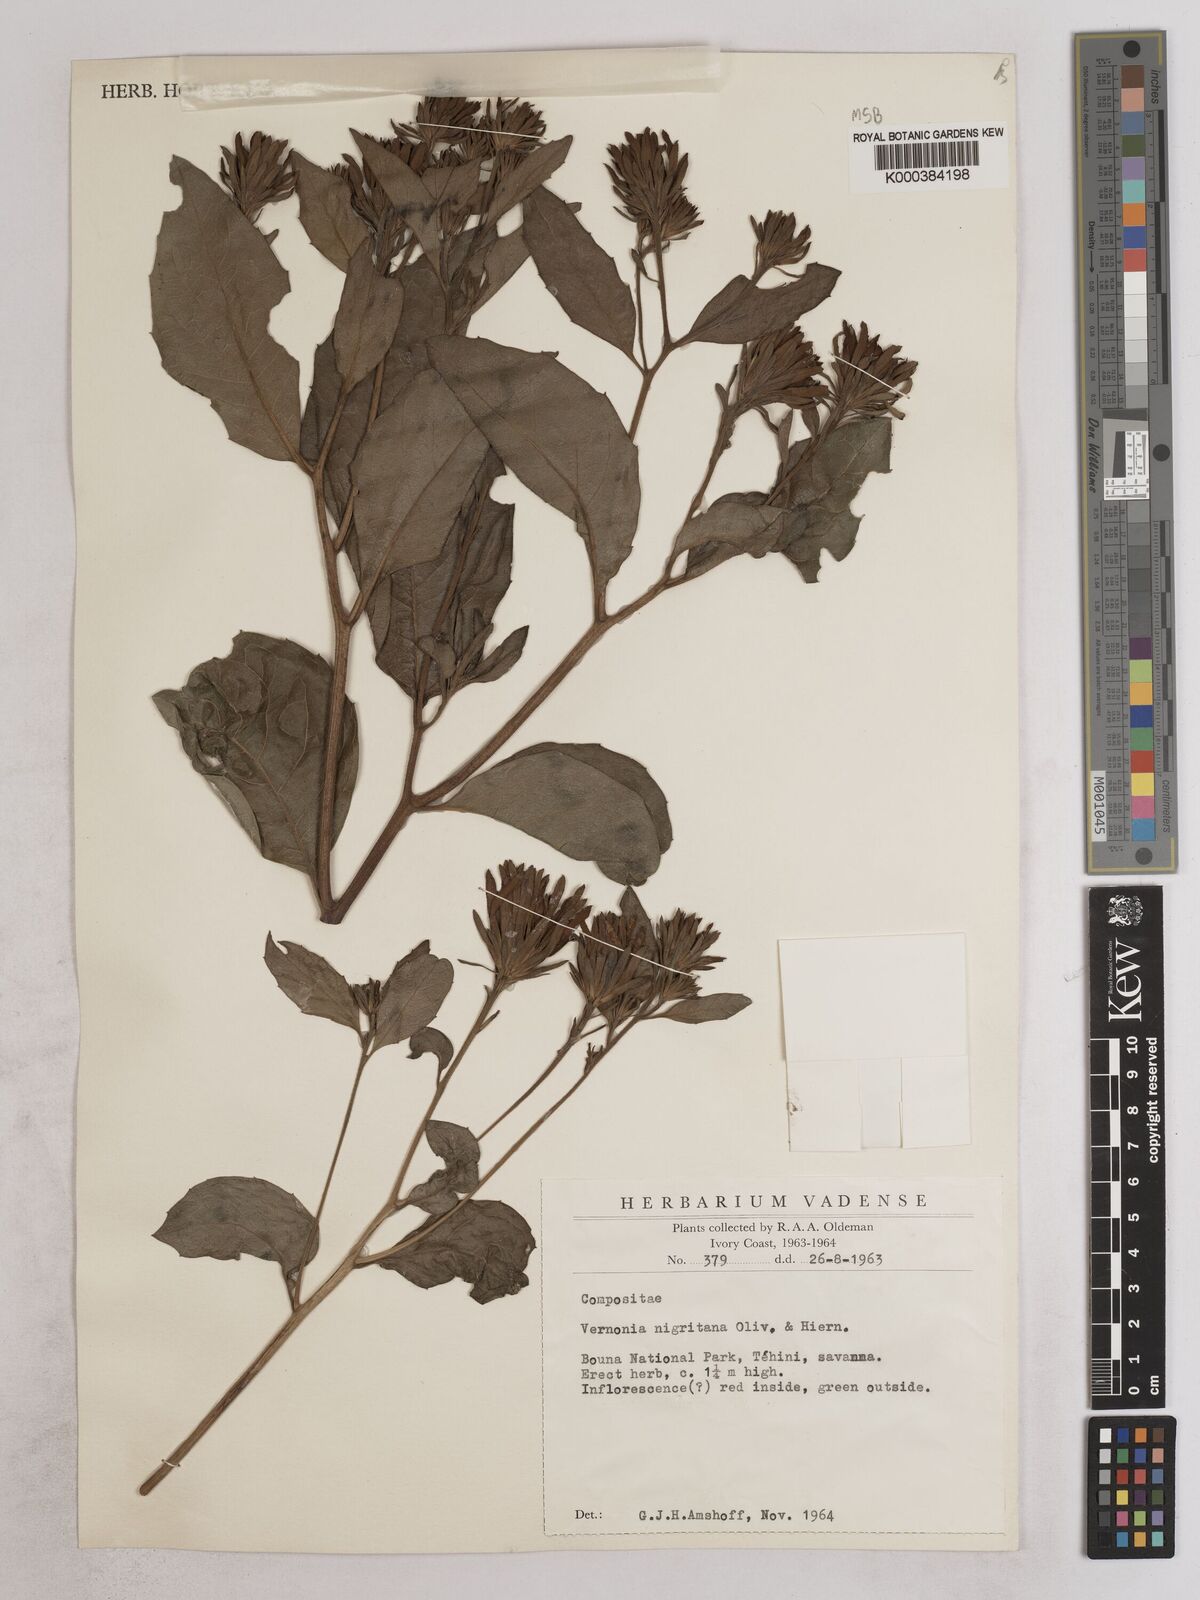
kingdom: Plantae
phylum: Tracheophyta
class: Magnoliopsida
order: Asterales
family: Asteraceae
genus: Linzia
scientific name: Linzia nigritiana
